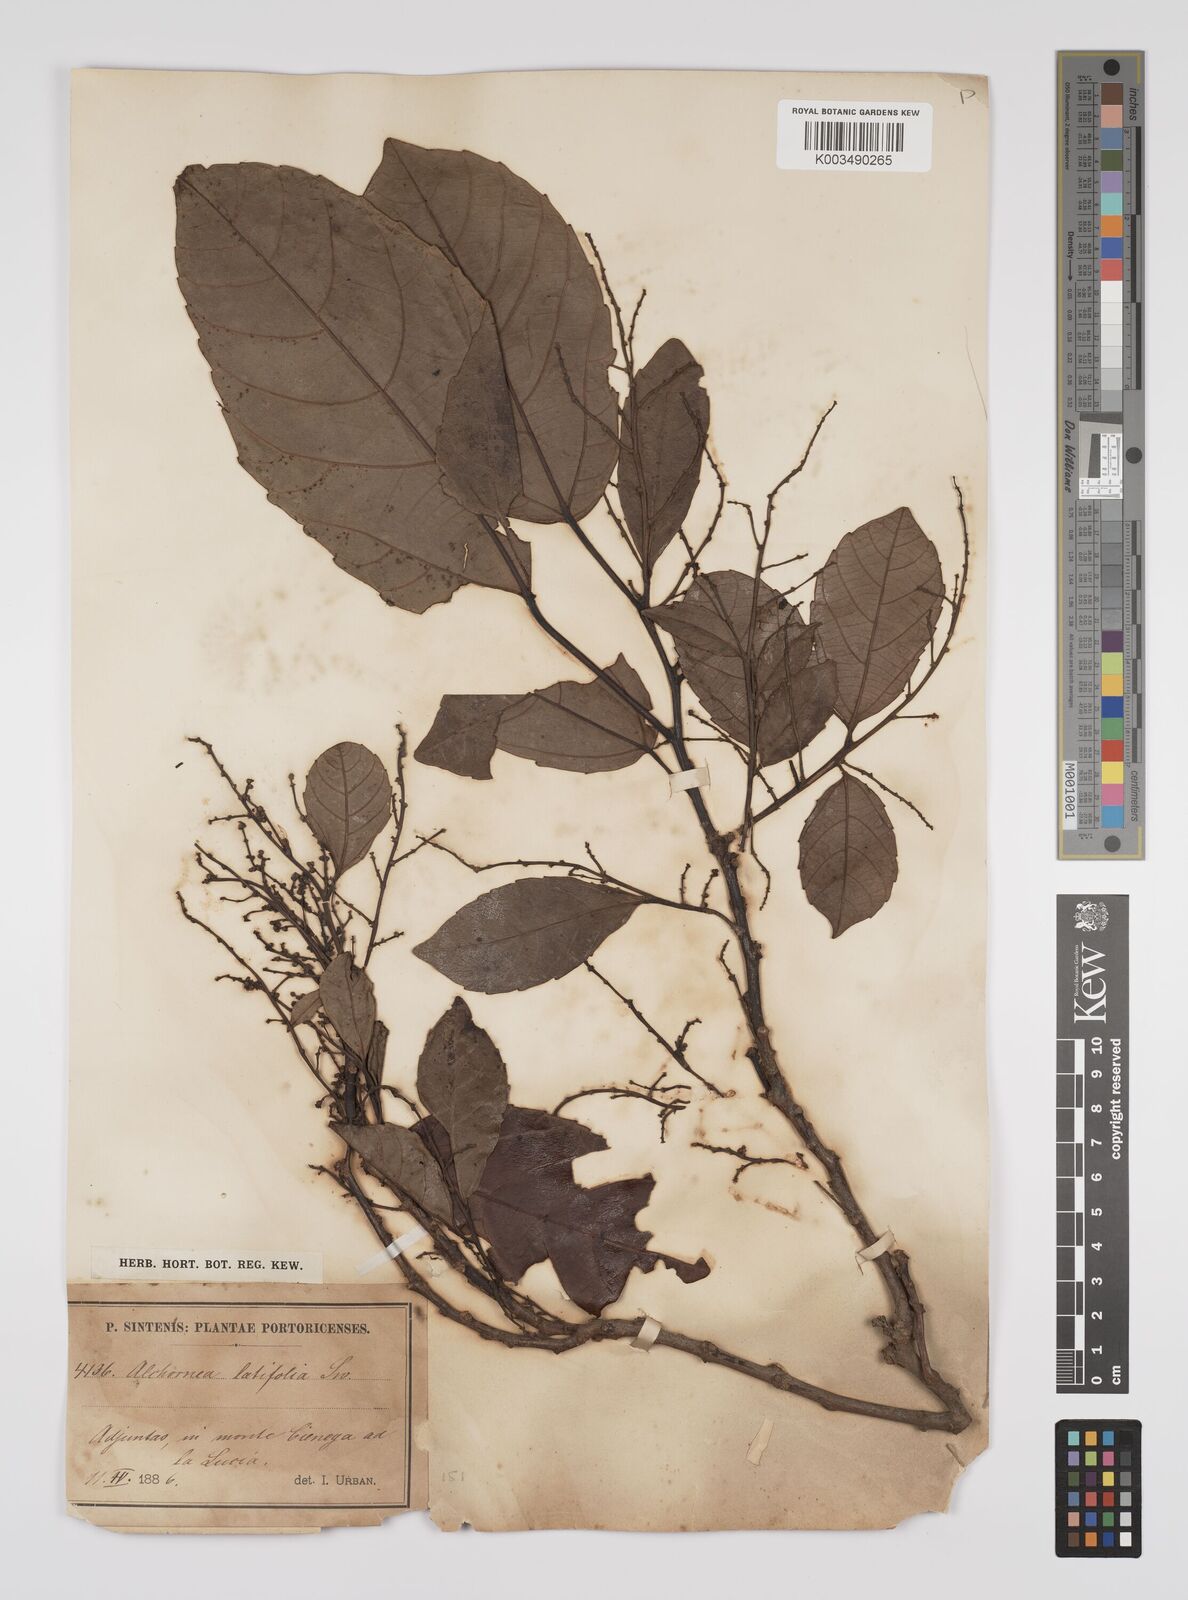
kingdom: Plantae
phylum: Tracheophyta
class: Magnoliopsida
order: Malpighiales
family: Euphorbiaceae
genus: Alchornea
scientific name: Alchornea latifolia
